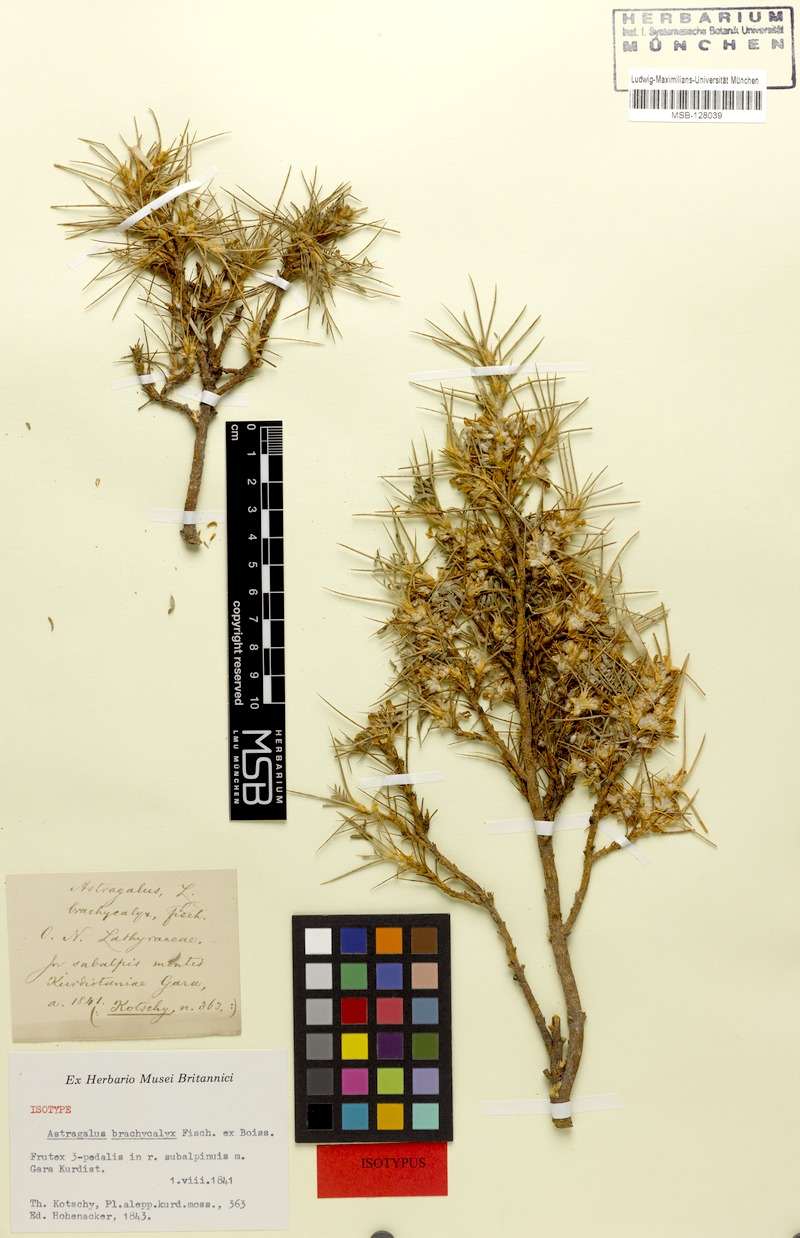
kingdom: Plantae
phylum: Tracheophyta
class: Magnoliopsida
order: Fabales
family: Fabaceae
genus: Astragalus
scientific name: Astragalus brachycalyx
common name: Persian manna
